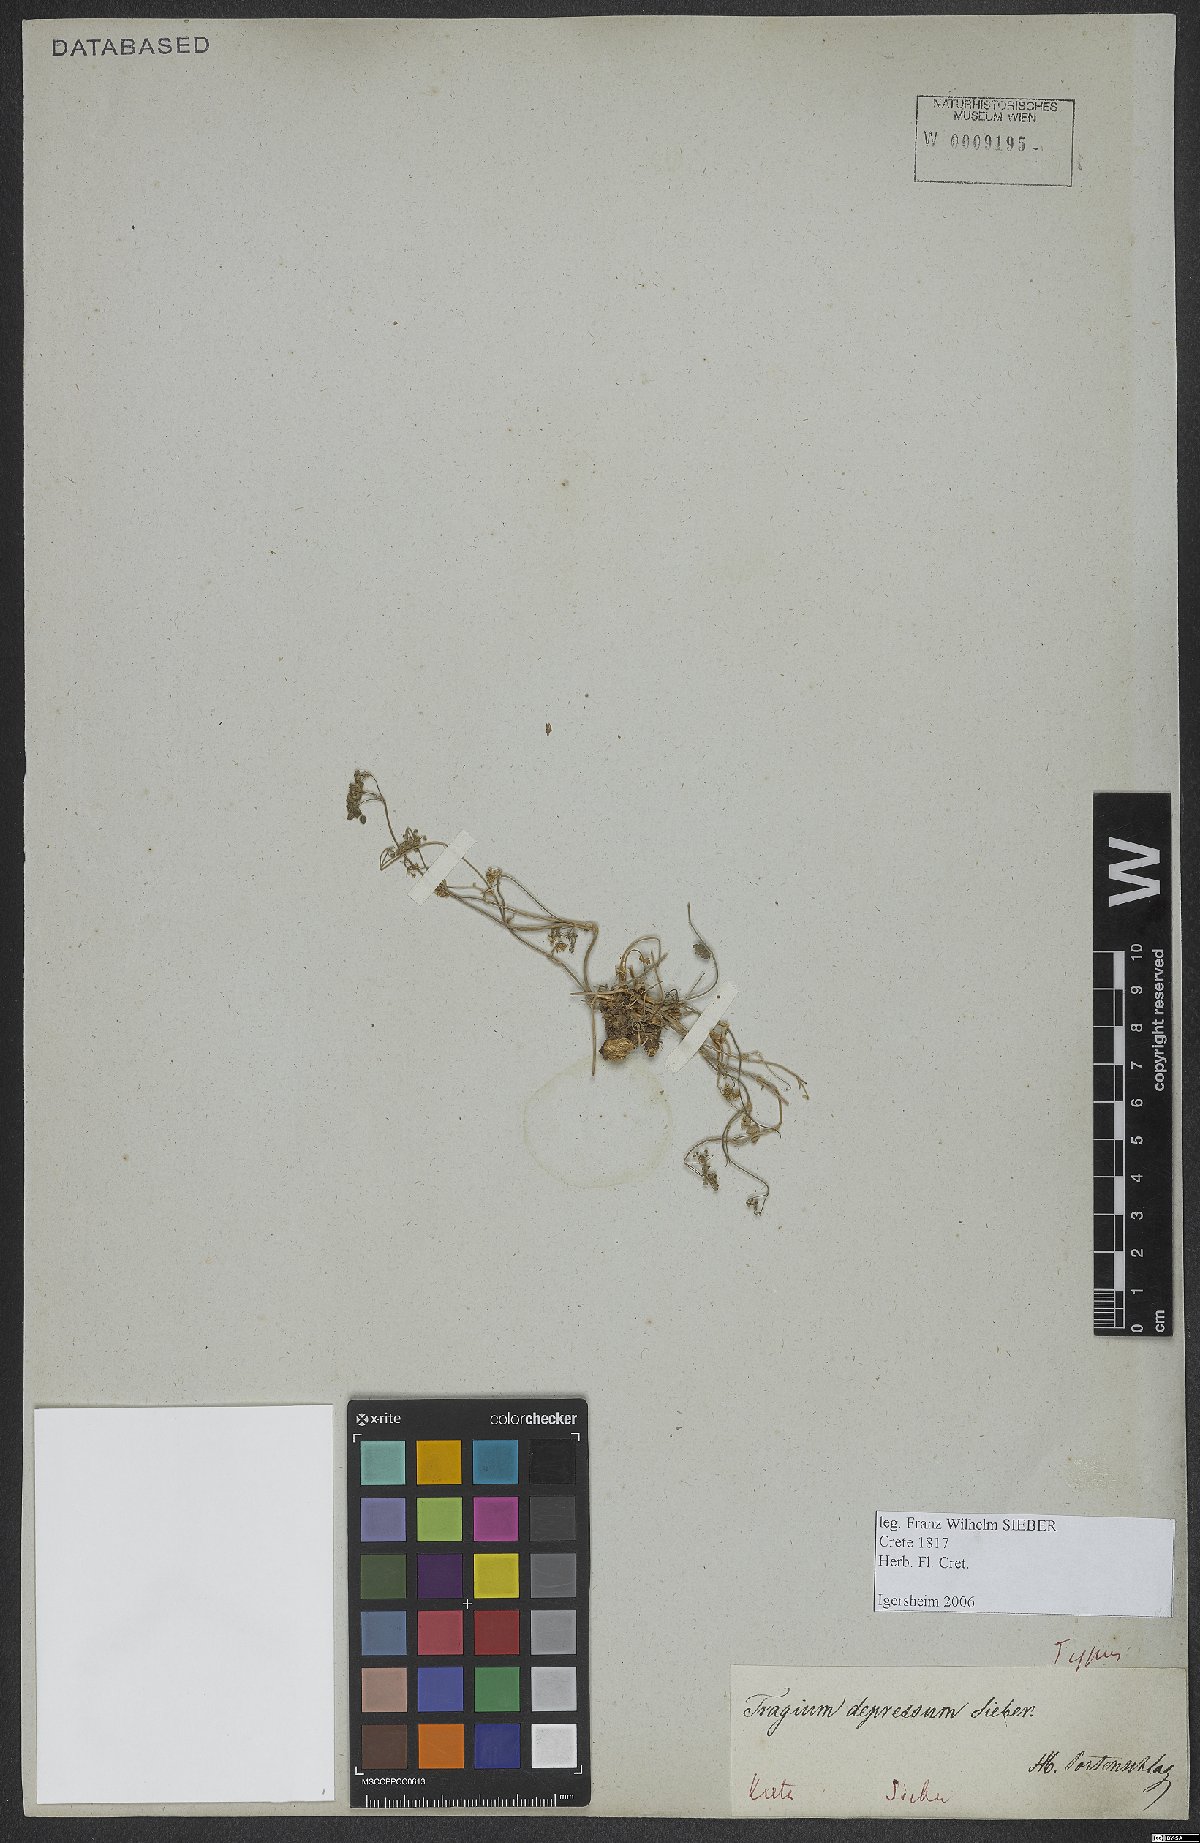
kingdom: Plantae
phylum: Tracheophyta
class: Magnoliopsida
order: Apiales
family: Apiaceae
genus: Pimpinella
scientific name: Pimpinella tragium
